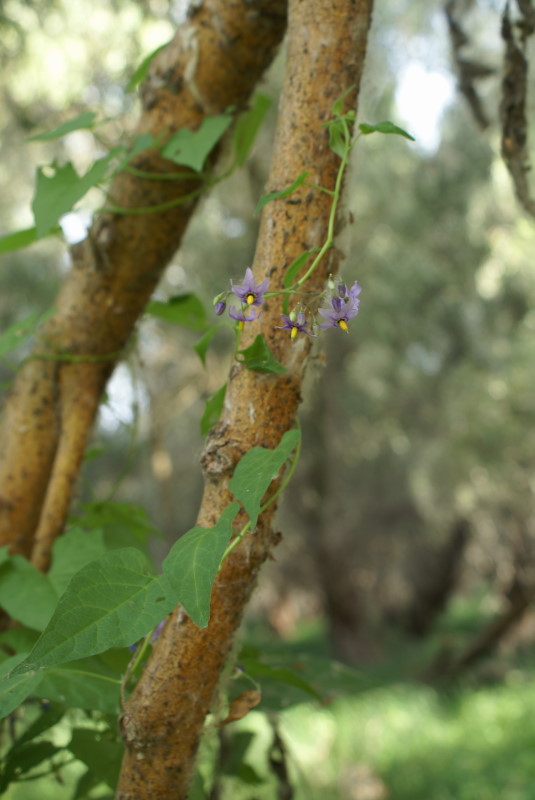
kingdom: Plantae
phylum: Tracheophyta
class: Magnoliopsida
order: Solanales
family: Solanaceae
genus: Solanum
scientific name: Solanum
